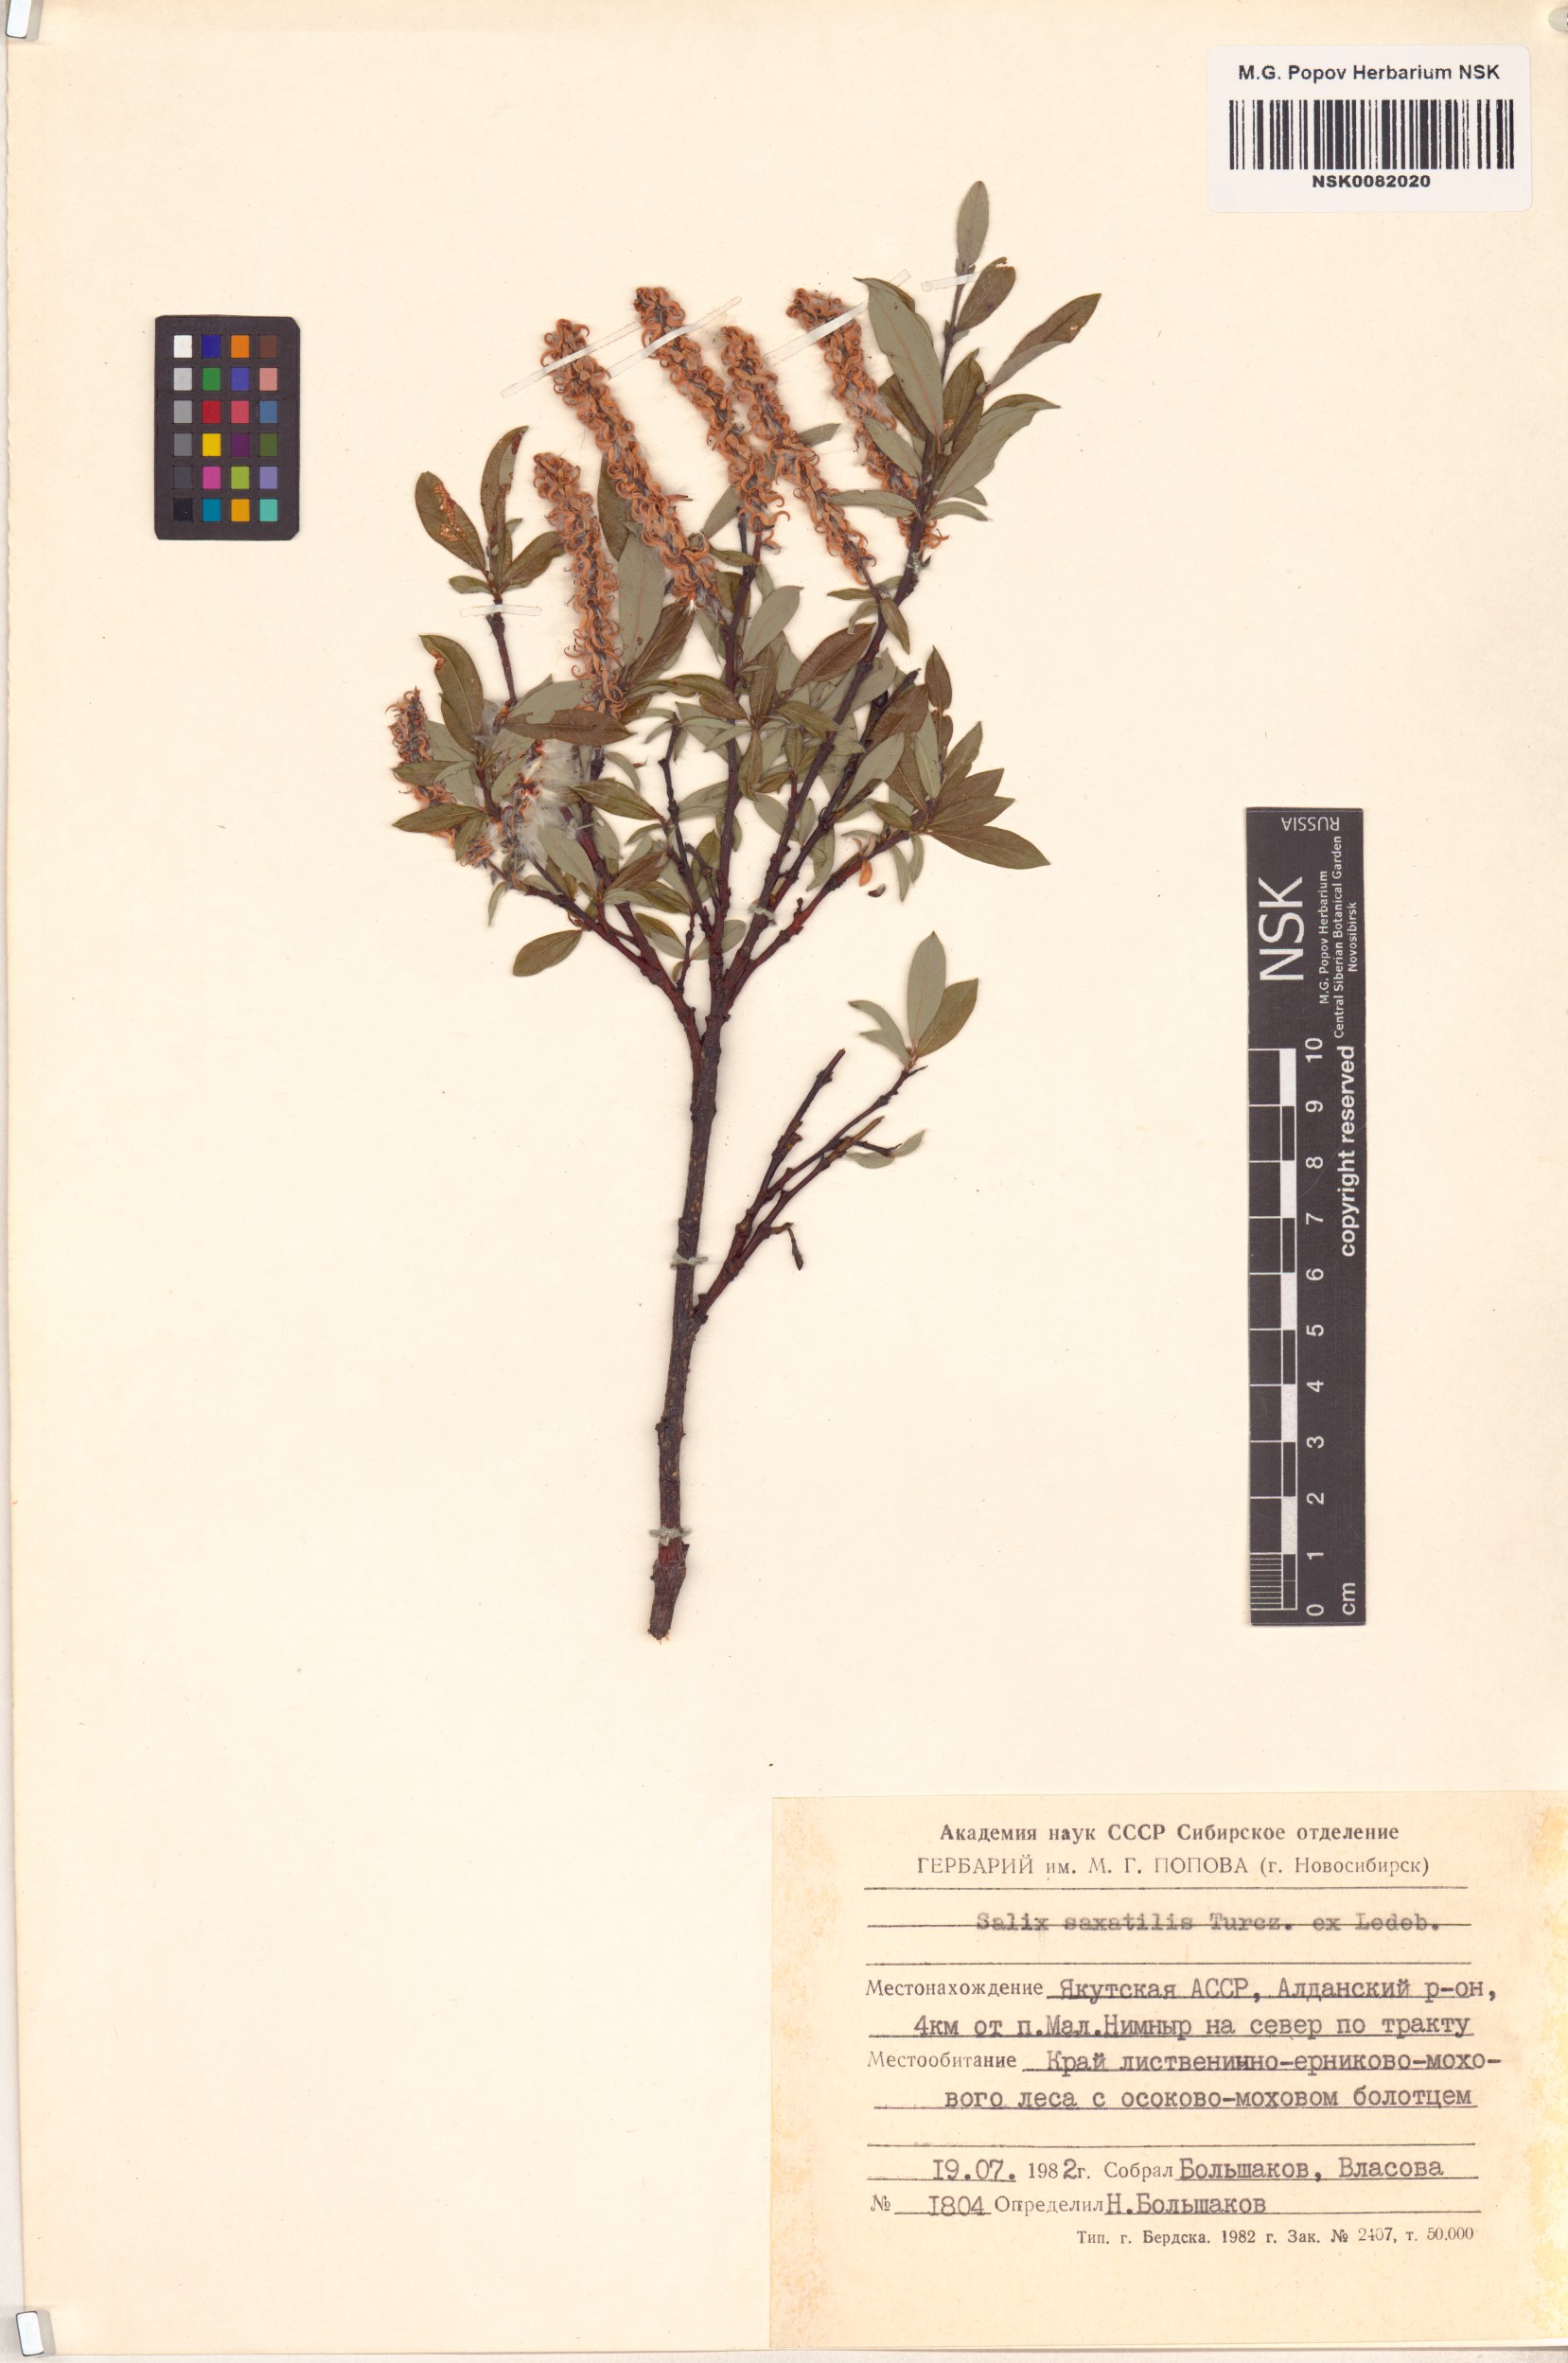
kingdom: Plantae
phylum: Tracheophyta
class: Magnoliopsida
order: Malpighiales
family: Salicaceae
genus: Salix
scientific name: Salix saxatilis
